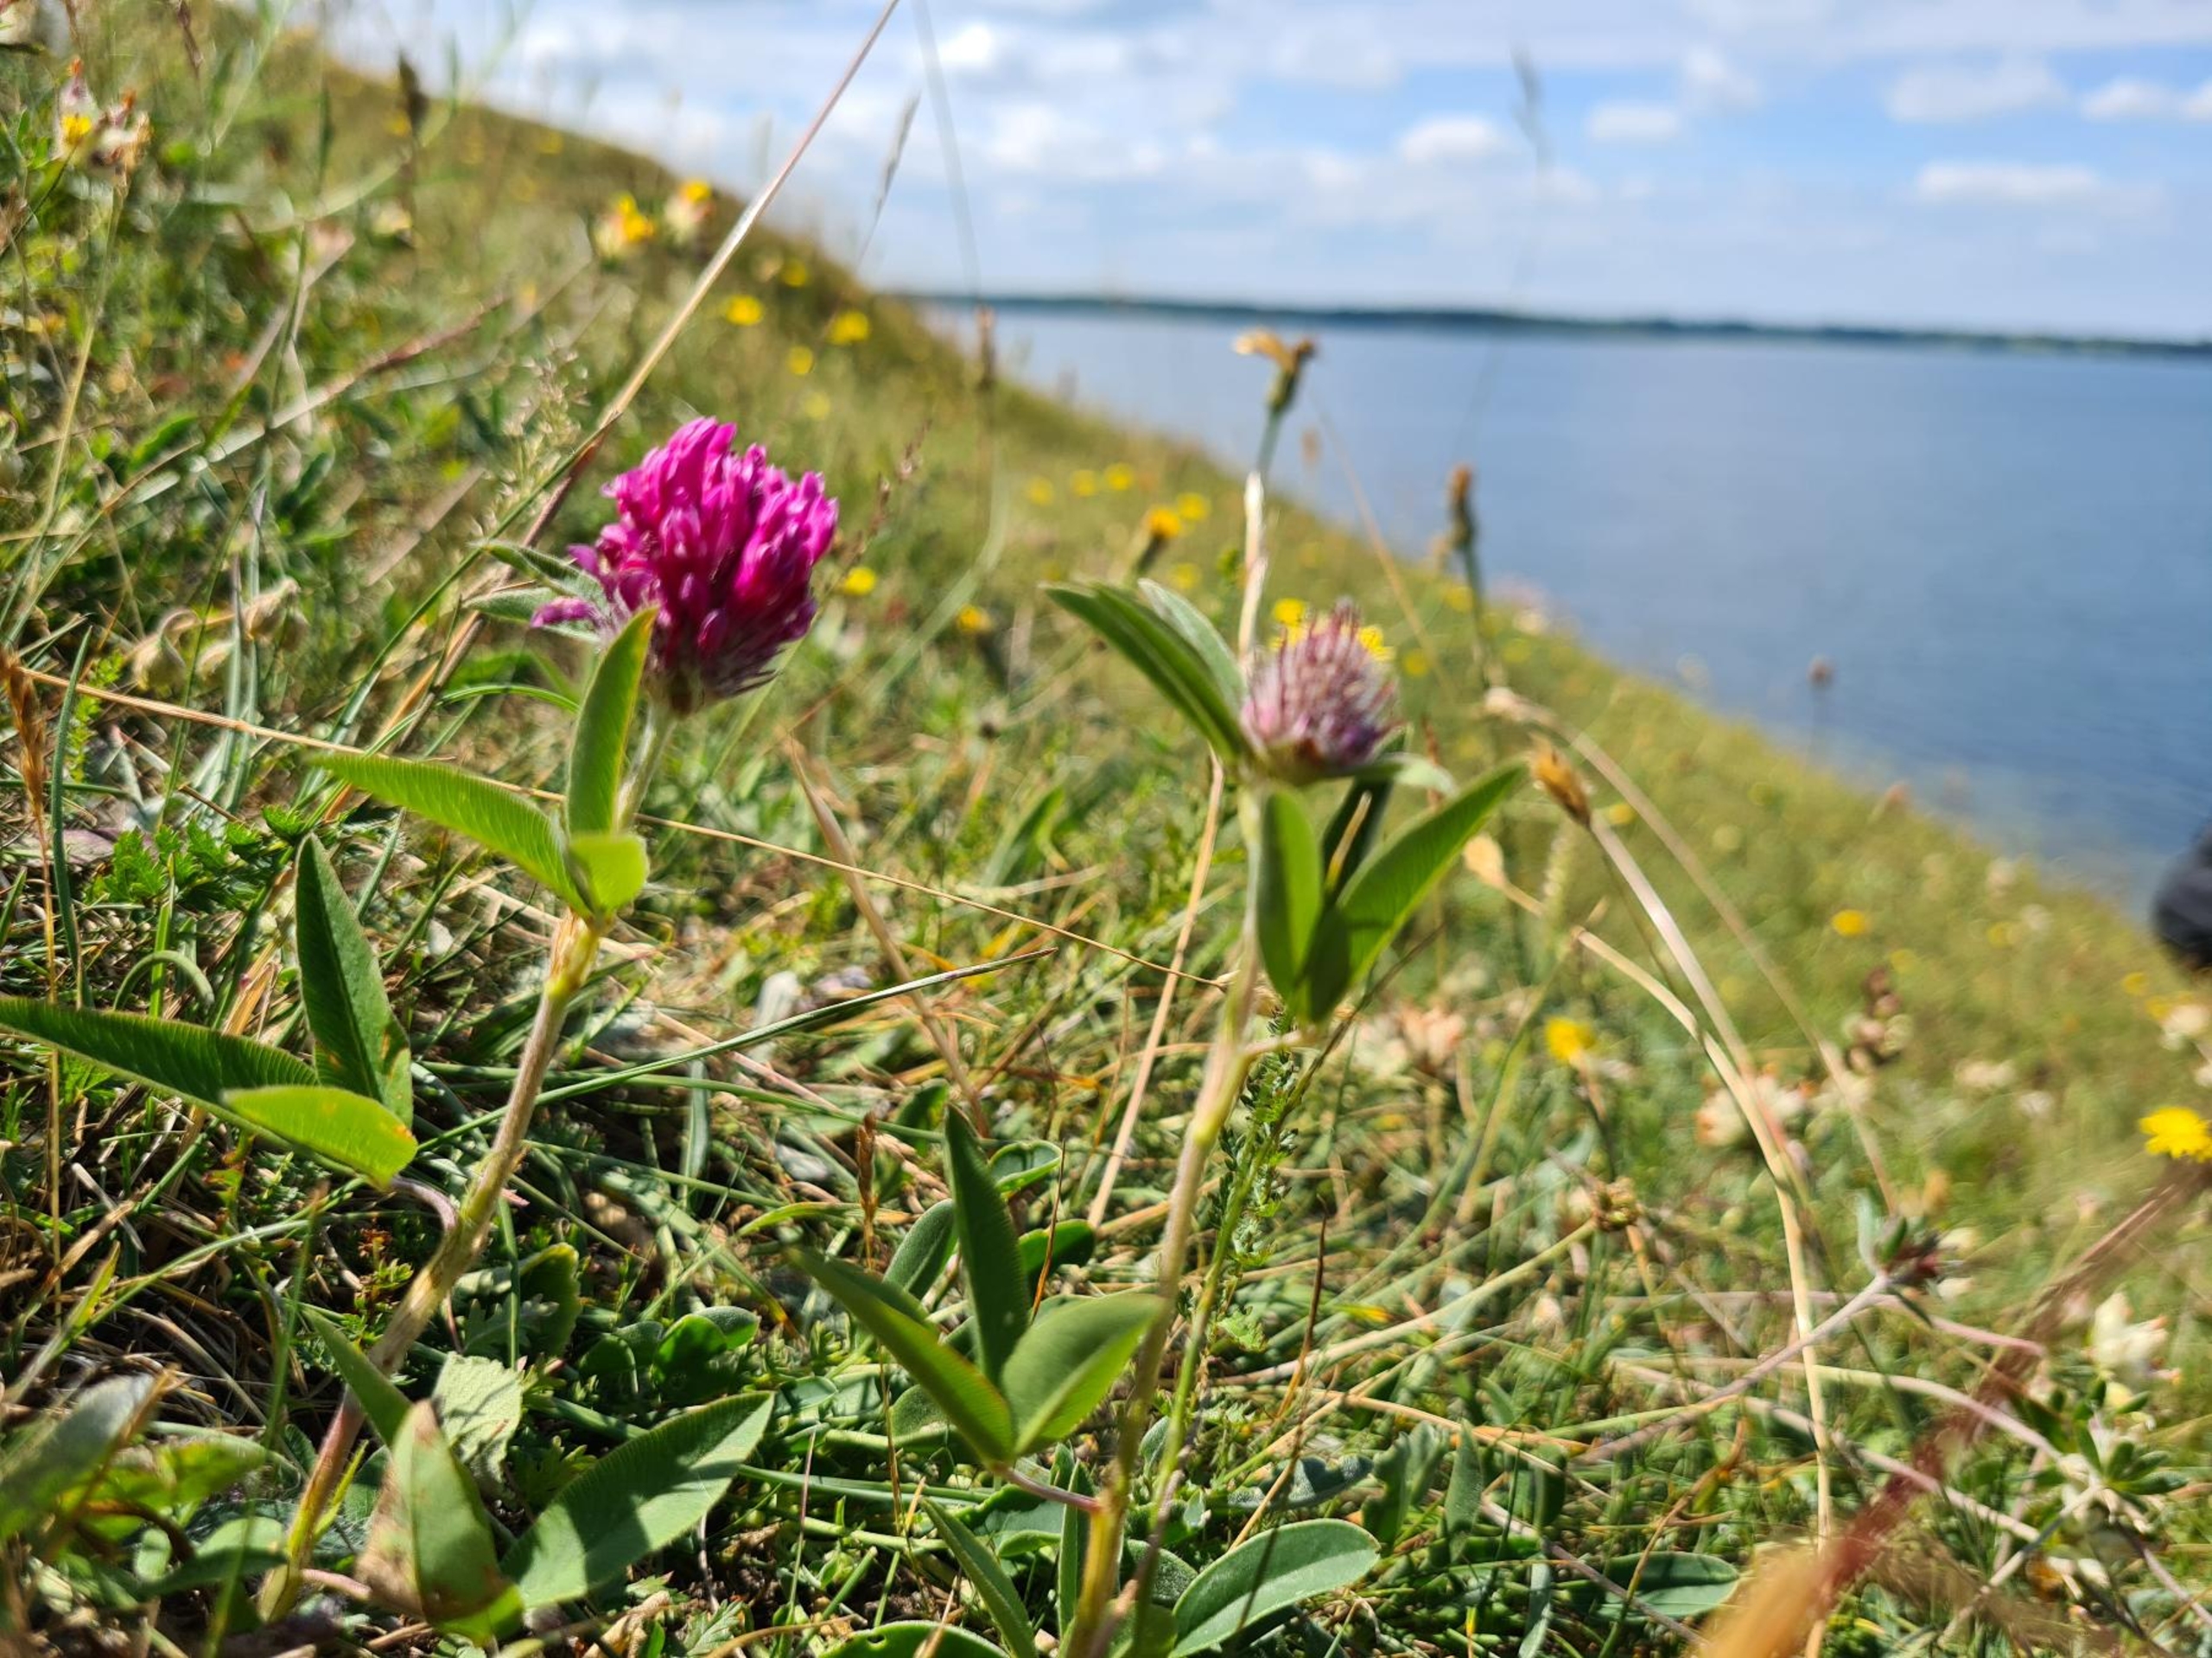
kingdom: Plantae
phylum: Tracheophyta
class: Magnoliopsida
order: Fabales
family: Fabaceae
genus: Trifolium
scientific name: Trifolium alpestre
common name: Skov-kløver
